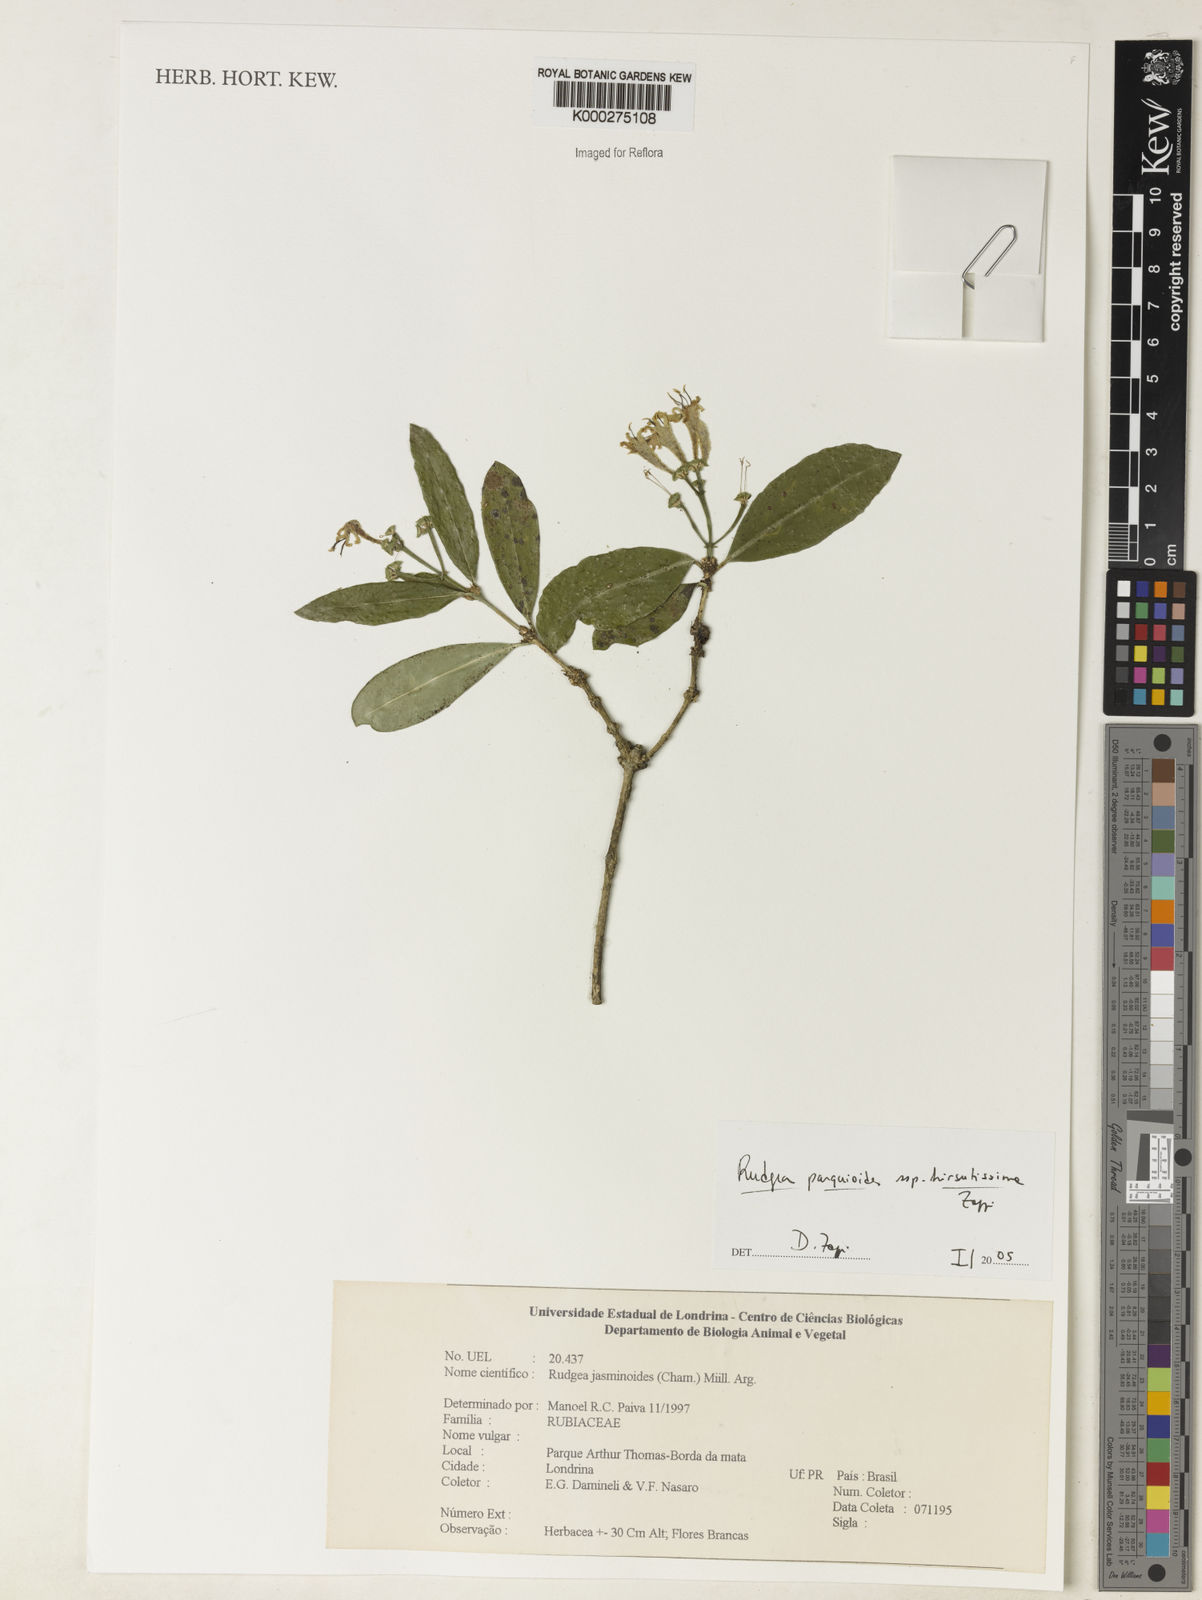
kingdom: Plantae
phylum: Tracheophyta
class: Magnoliopsida
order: Gentianales
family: Rubiaceae
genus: Rudgea
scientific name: Rudgea parquioides
